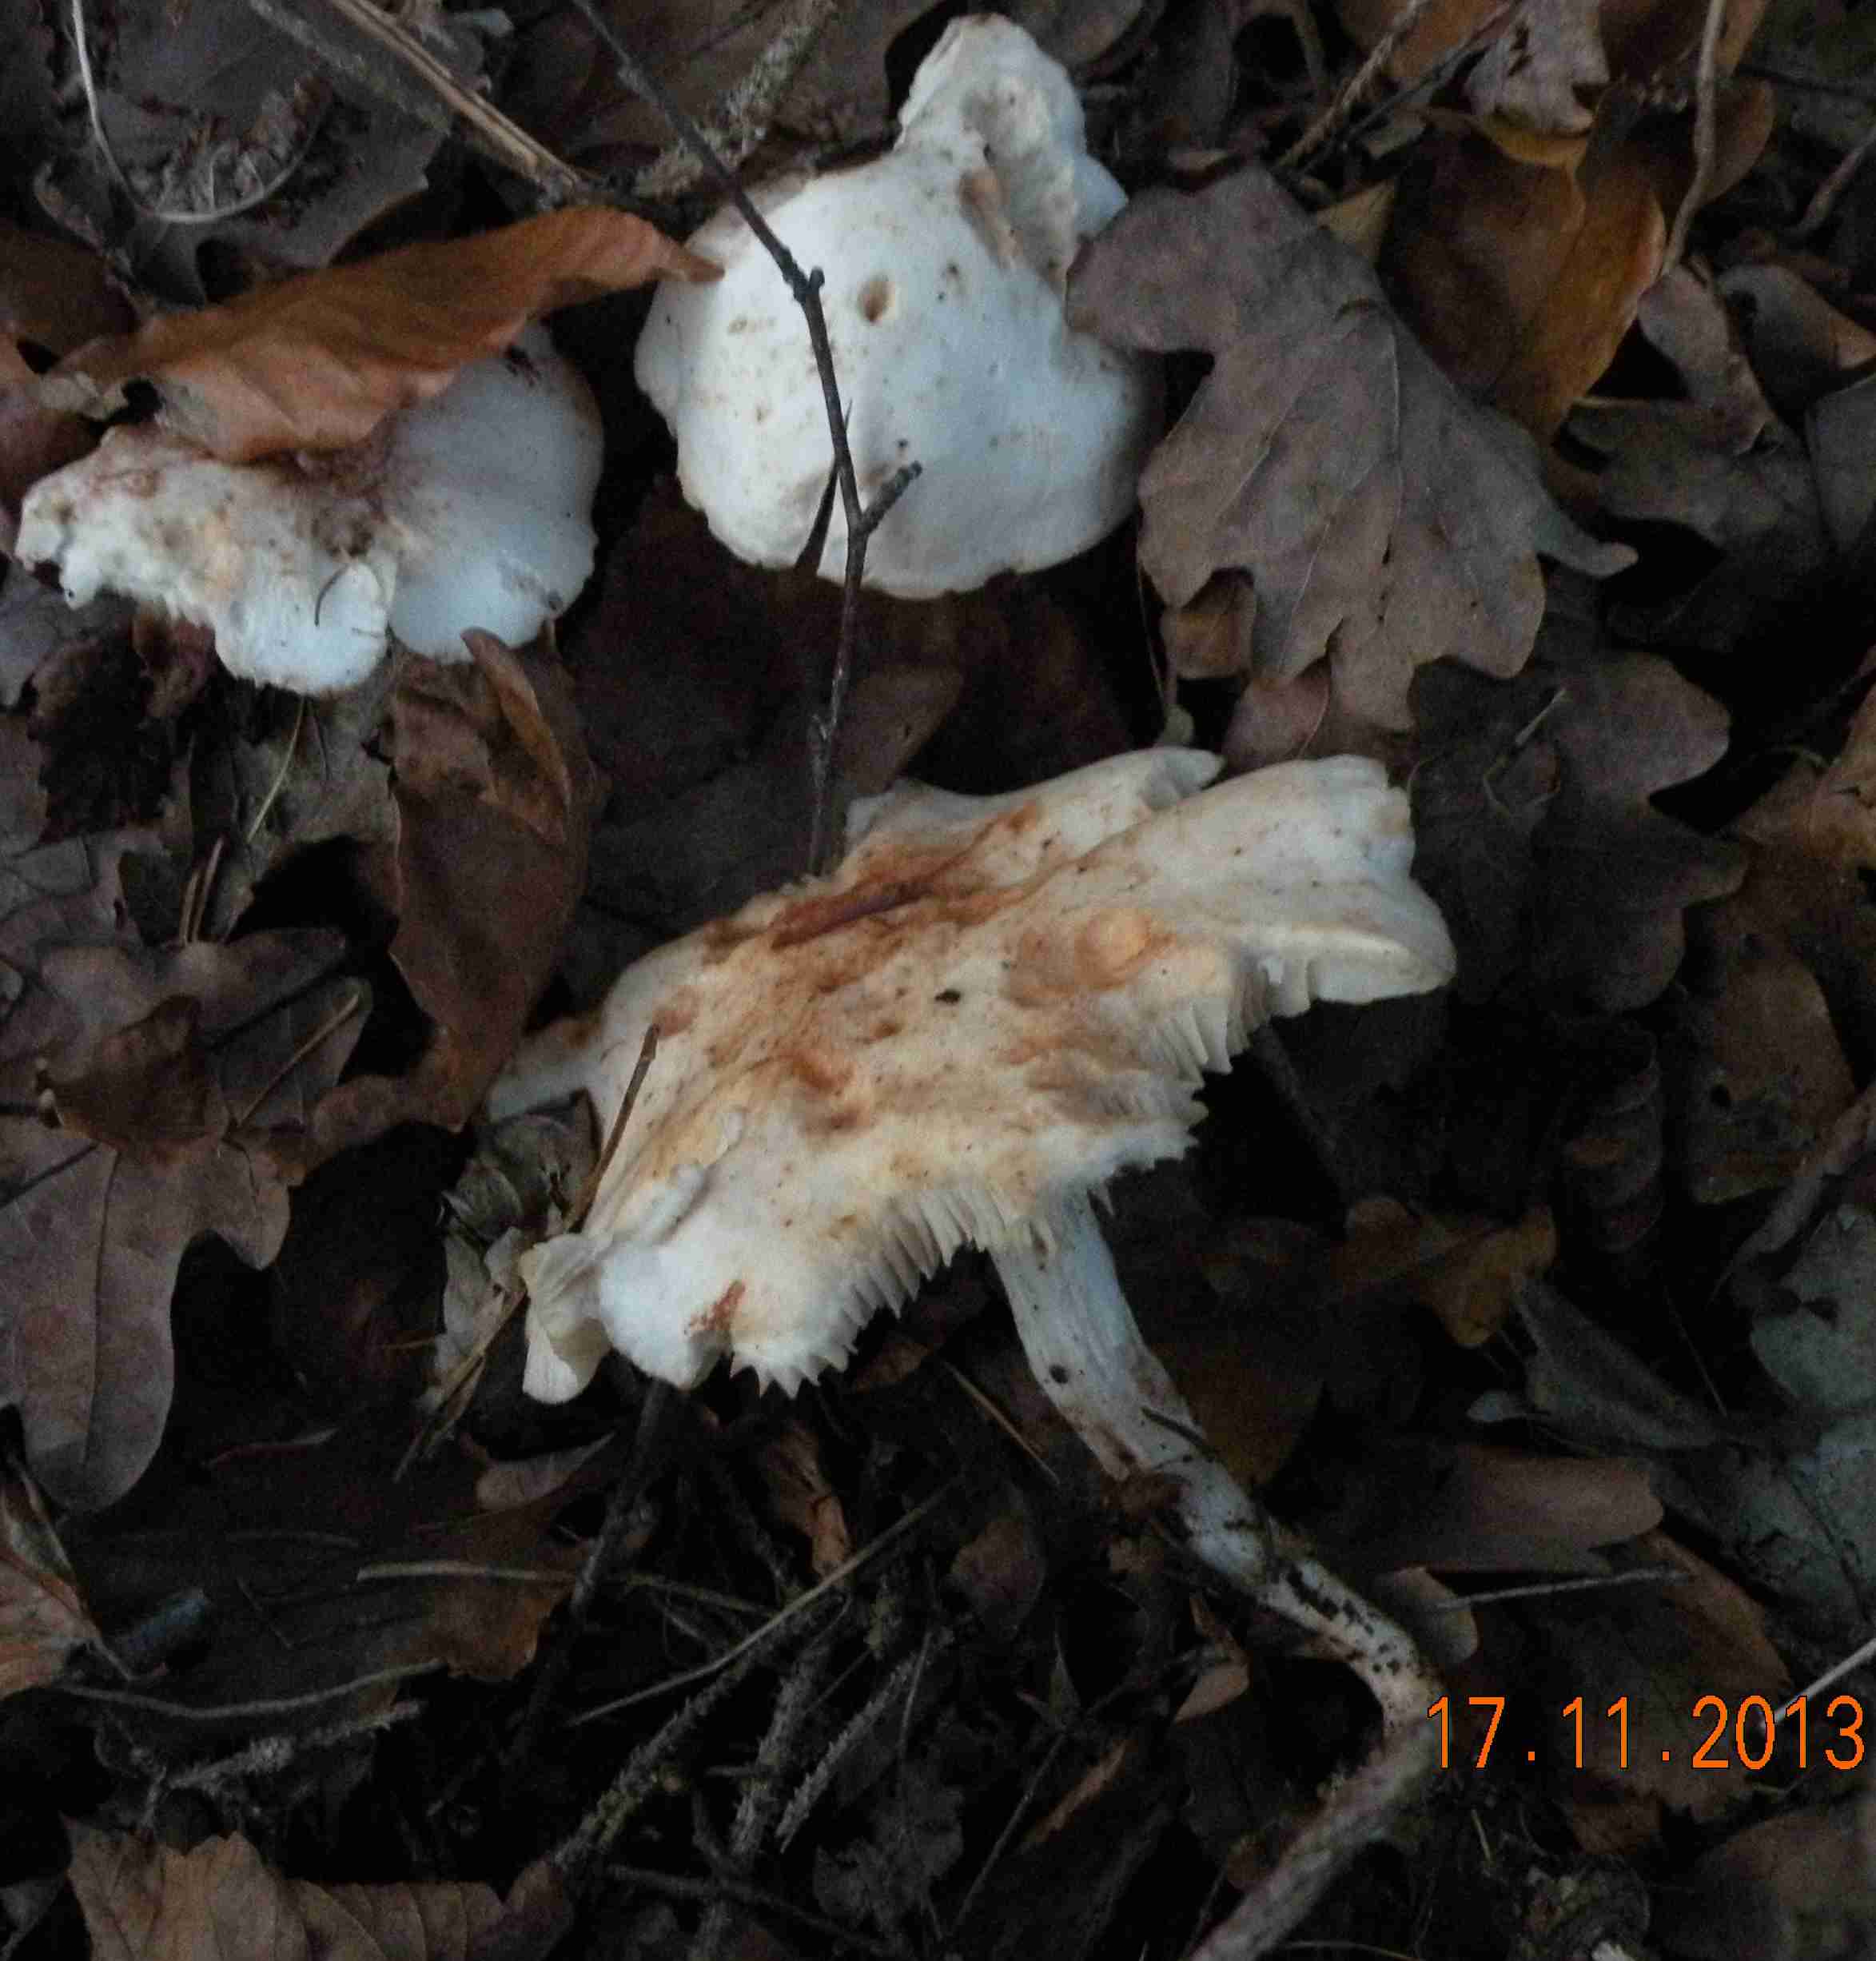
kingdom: Fungi
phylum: Basidiomycota
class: Agaricomycetes
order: Agaricales
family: Omphalotaceae
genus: Rhodocollybia
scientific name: Rhodocollybia maculata
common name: plettet fladhat
